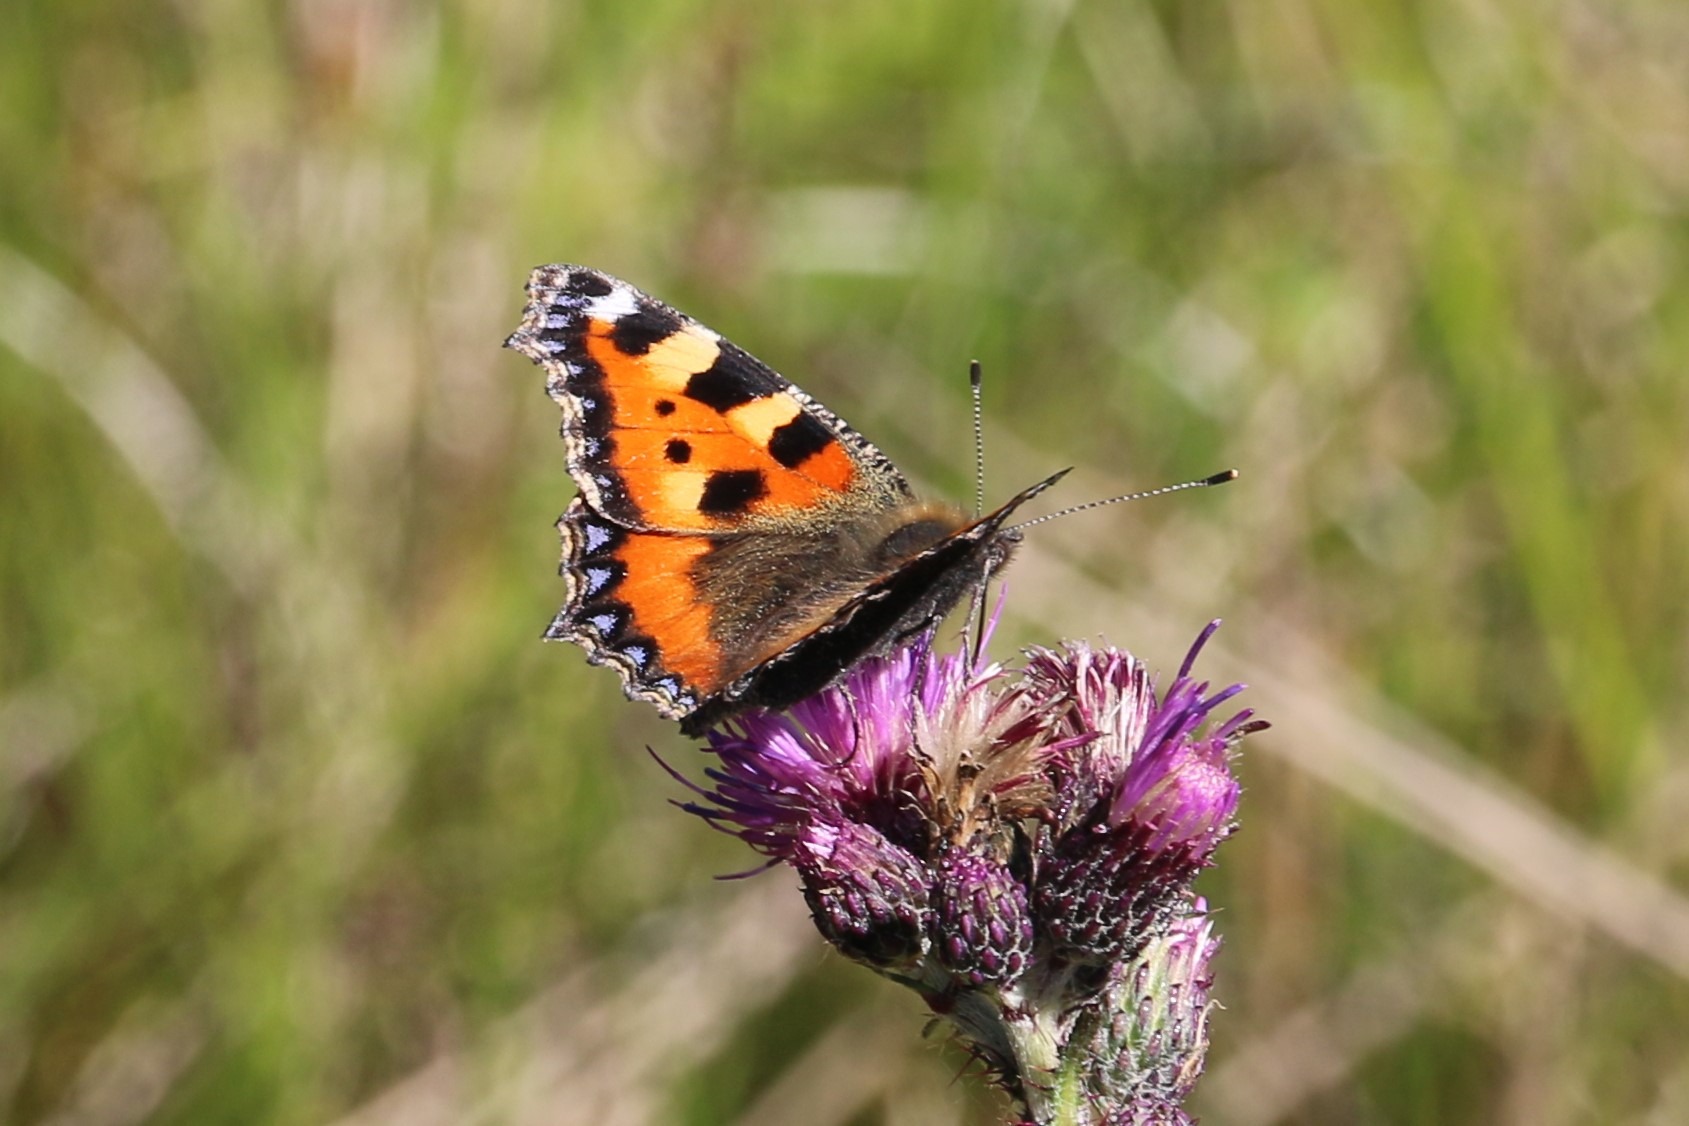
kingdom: Animalia
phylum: Arthropoda
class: Insecta
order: Lepidoptera
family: Nymphalidae
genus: Aglais
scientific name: Aglais urticae
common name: Nældens takvinge
